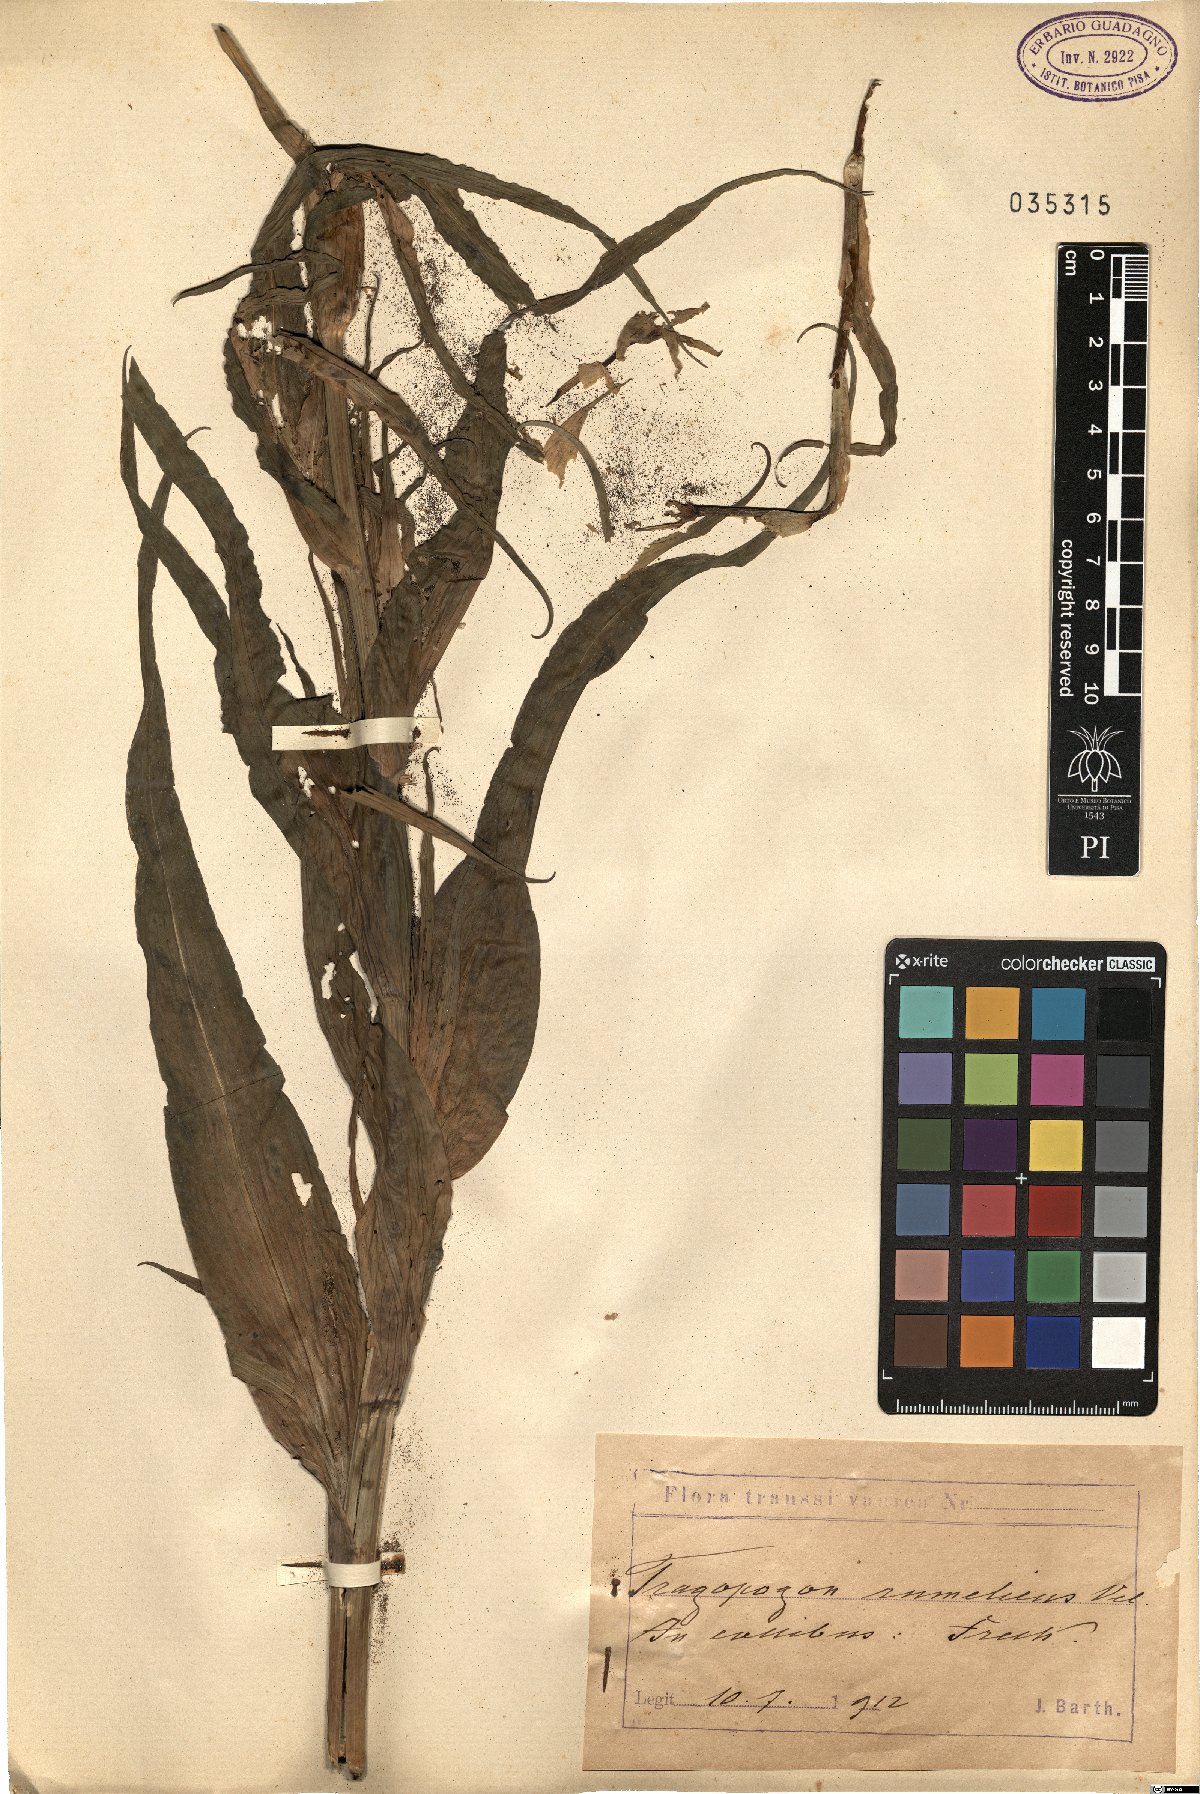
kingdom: Plantae
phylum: Tracheophyta
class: Magnoliopsida
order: Asterales
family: Asteraceae
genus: Tragopogon
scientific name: Tragopogon orientalis
